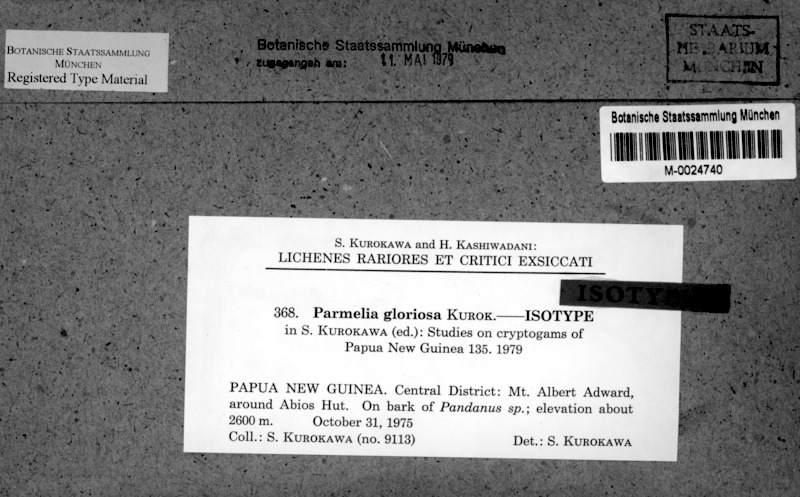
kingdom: Fungi
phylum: Ascomycota
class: Lecanoromycetes
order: Lecanorales
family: Parmeliaceae
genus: Xanthoparmelia
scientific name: Xanthoparmelia glareosa
